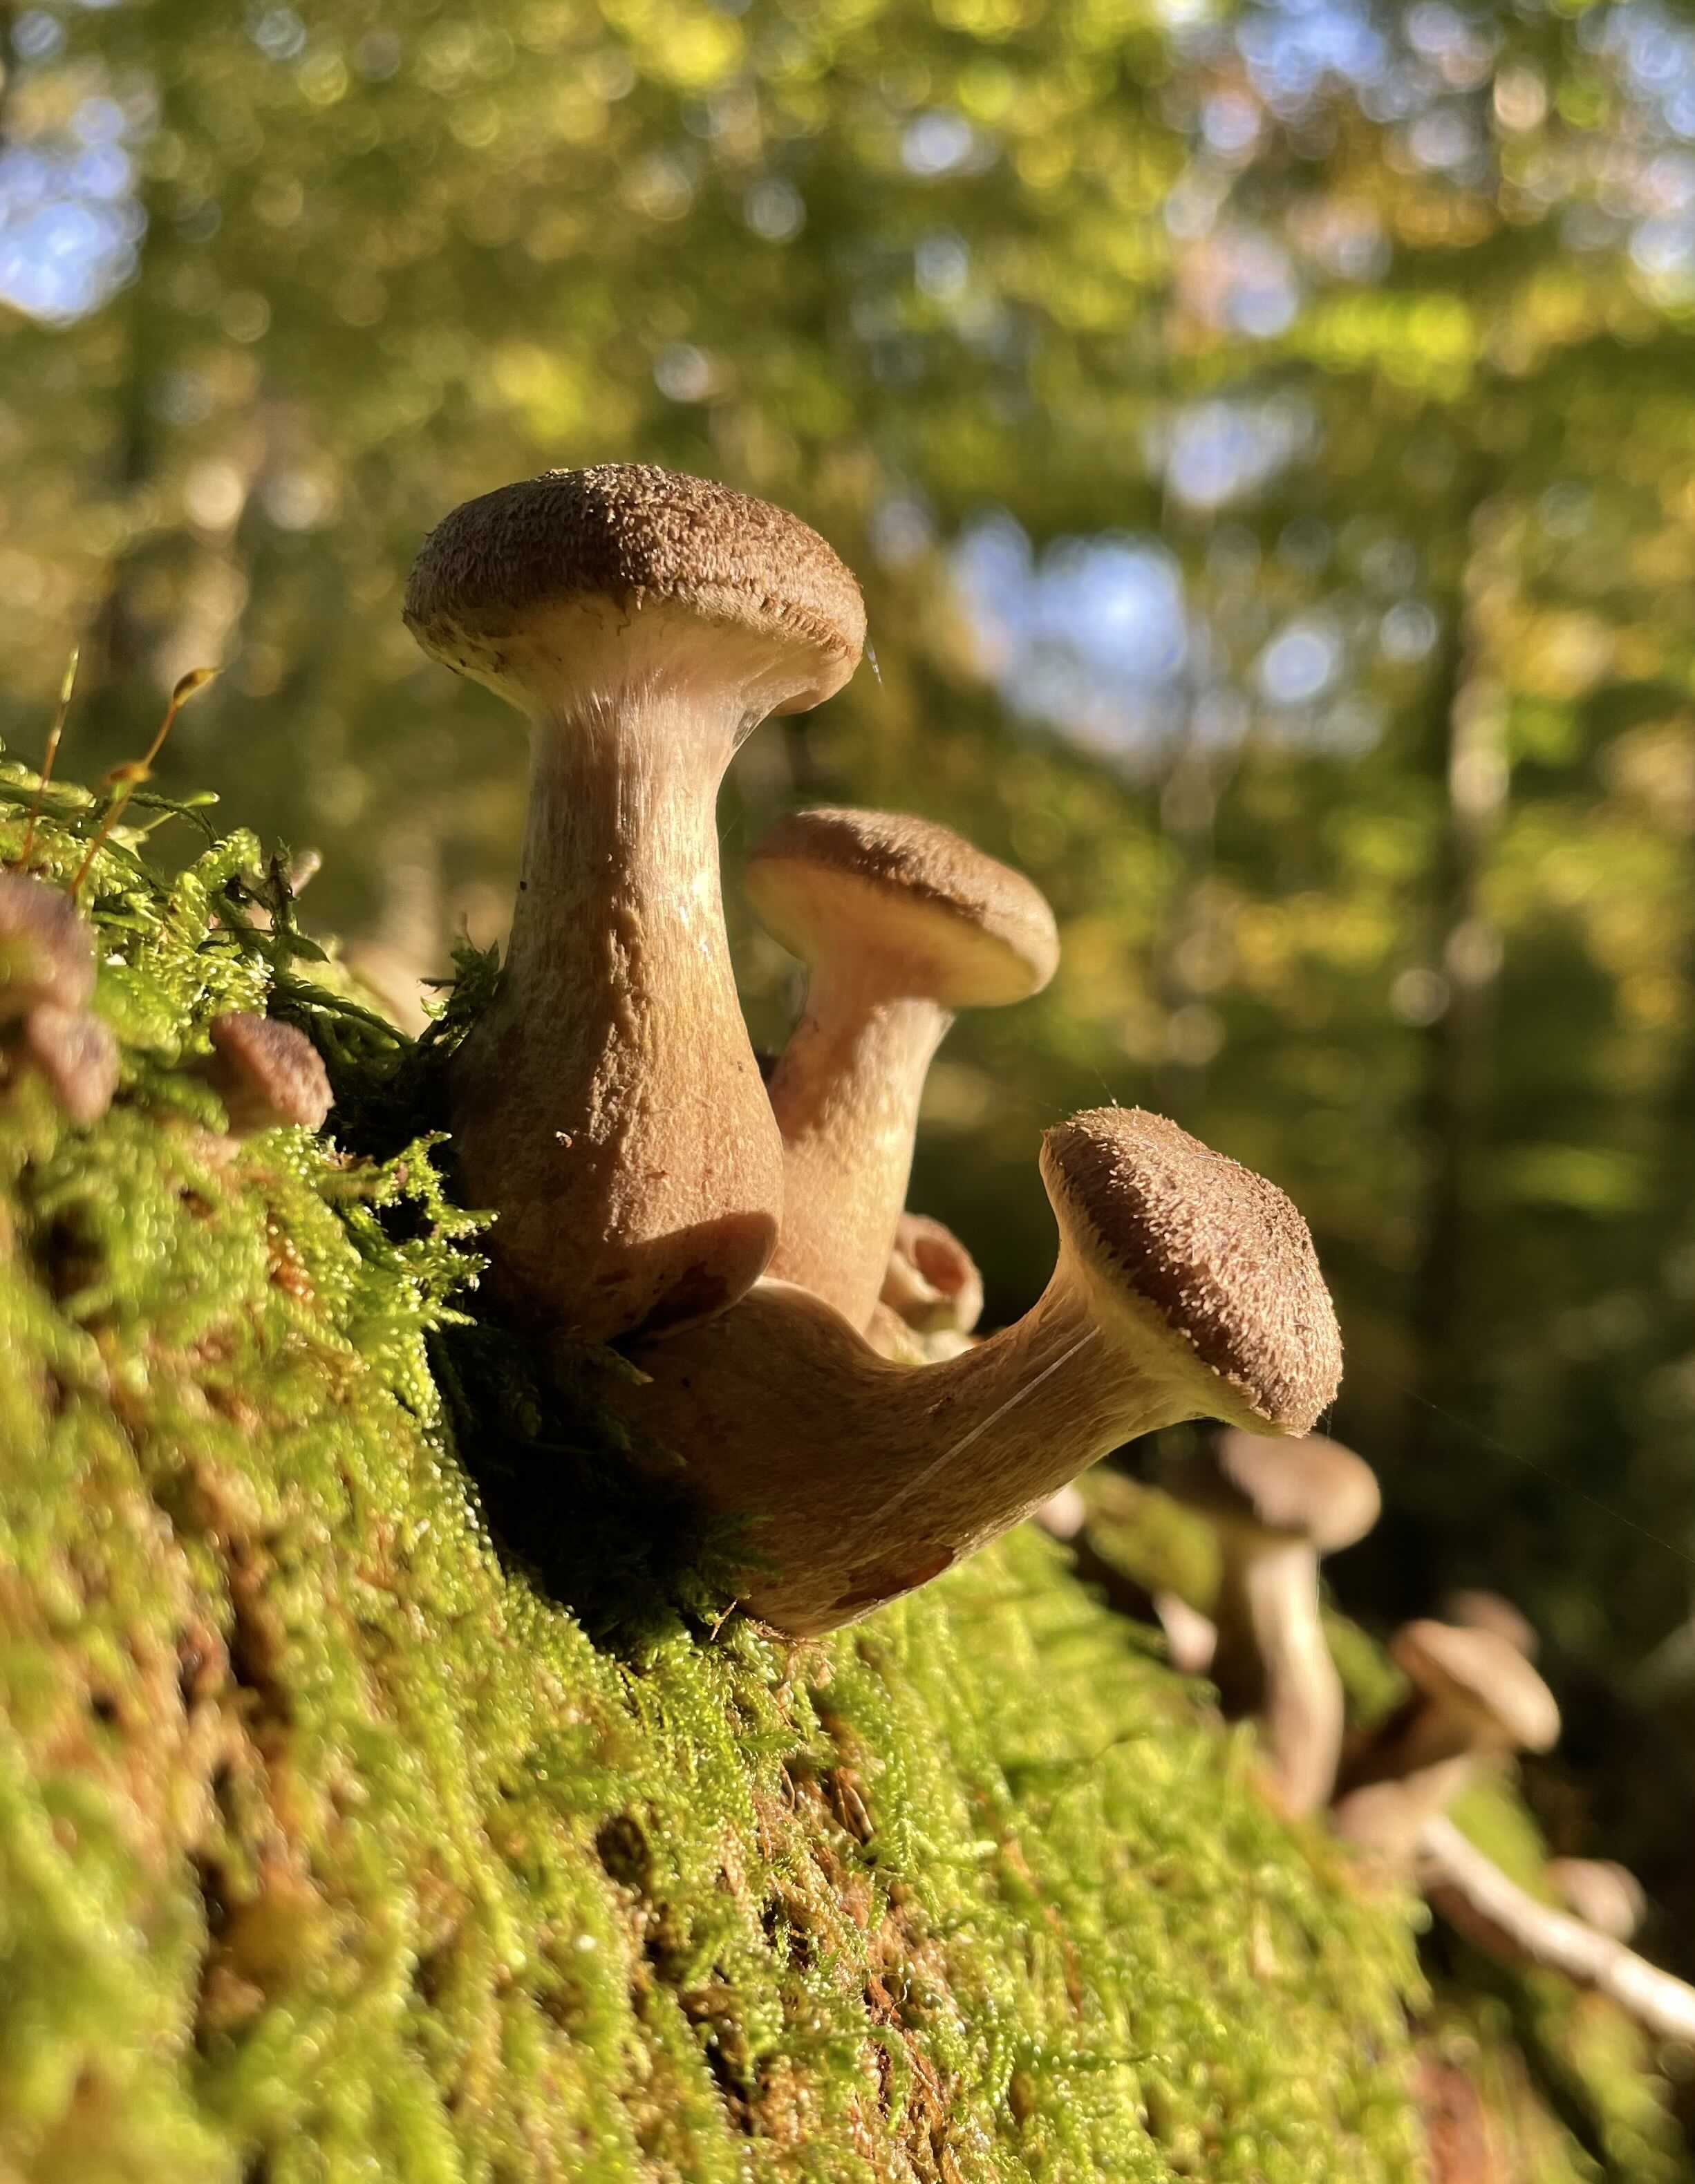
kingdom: Fungi
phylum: Basidiomycota
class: Agaricomycetes
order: Agaricales
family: Physalacriaceae
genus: Armillaria
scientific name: Armillaria lutea
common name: køllestokket honningsvamp
